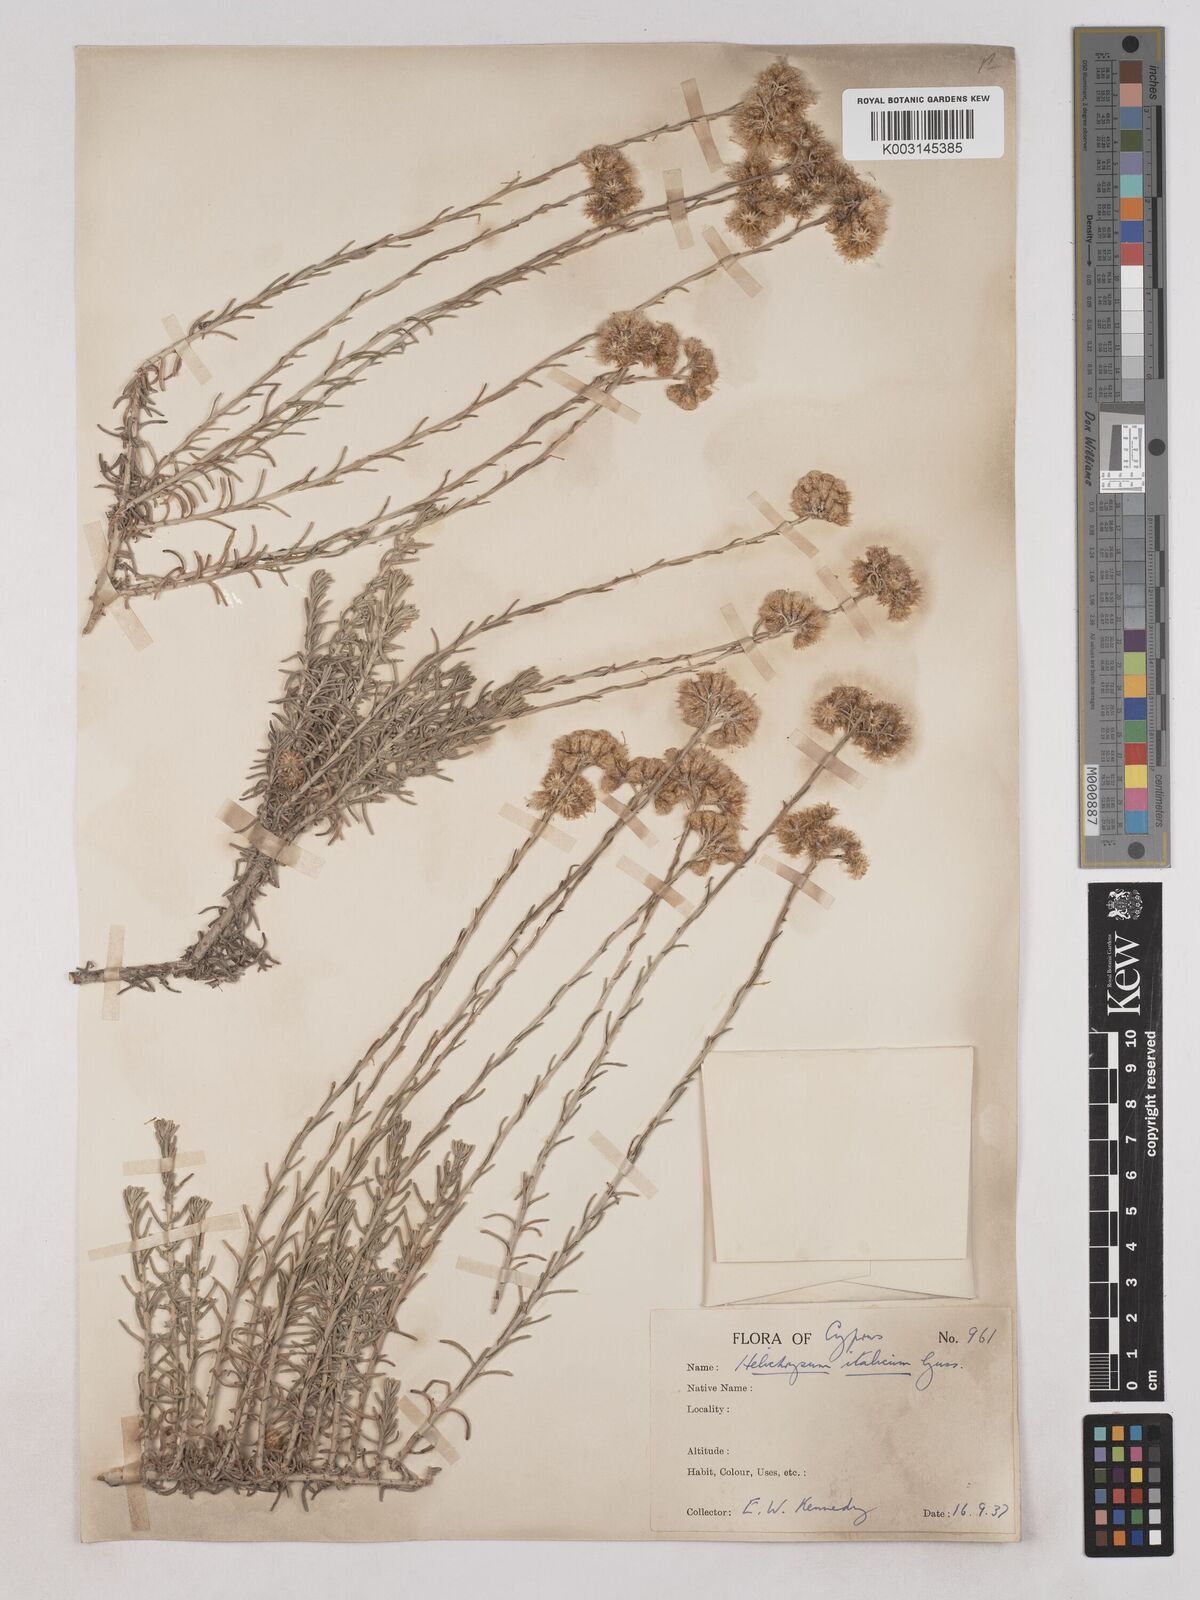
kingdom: Plantae
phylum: Tracheophyta
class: Magnoliopsida
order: Asterales
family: Asteraceae
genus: Helichrysum
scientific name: Helichrysum italicum
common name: Curryplant
